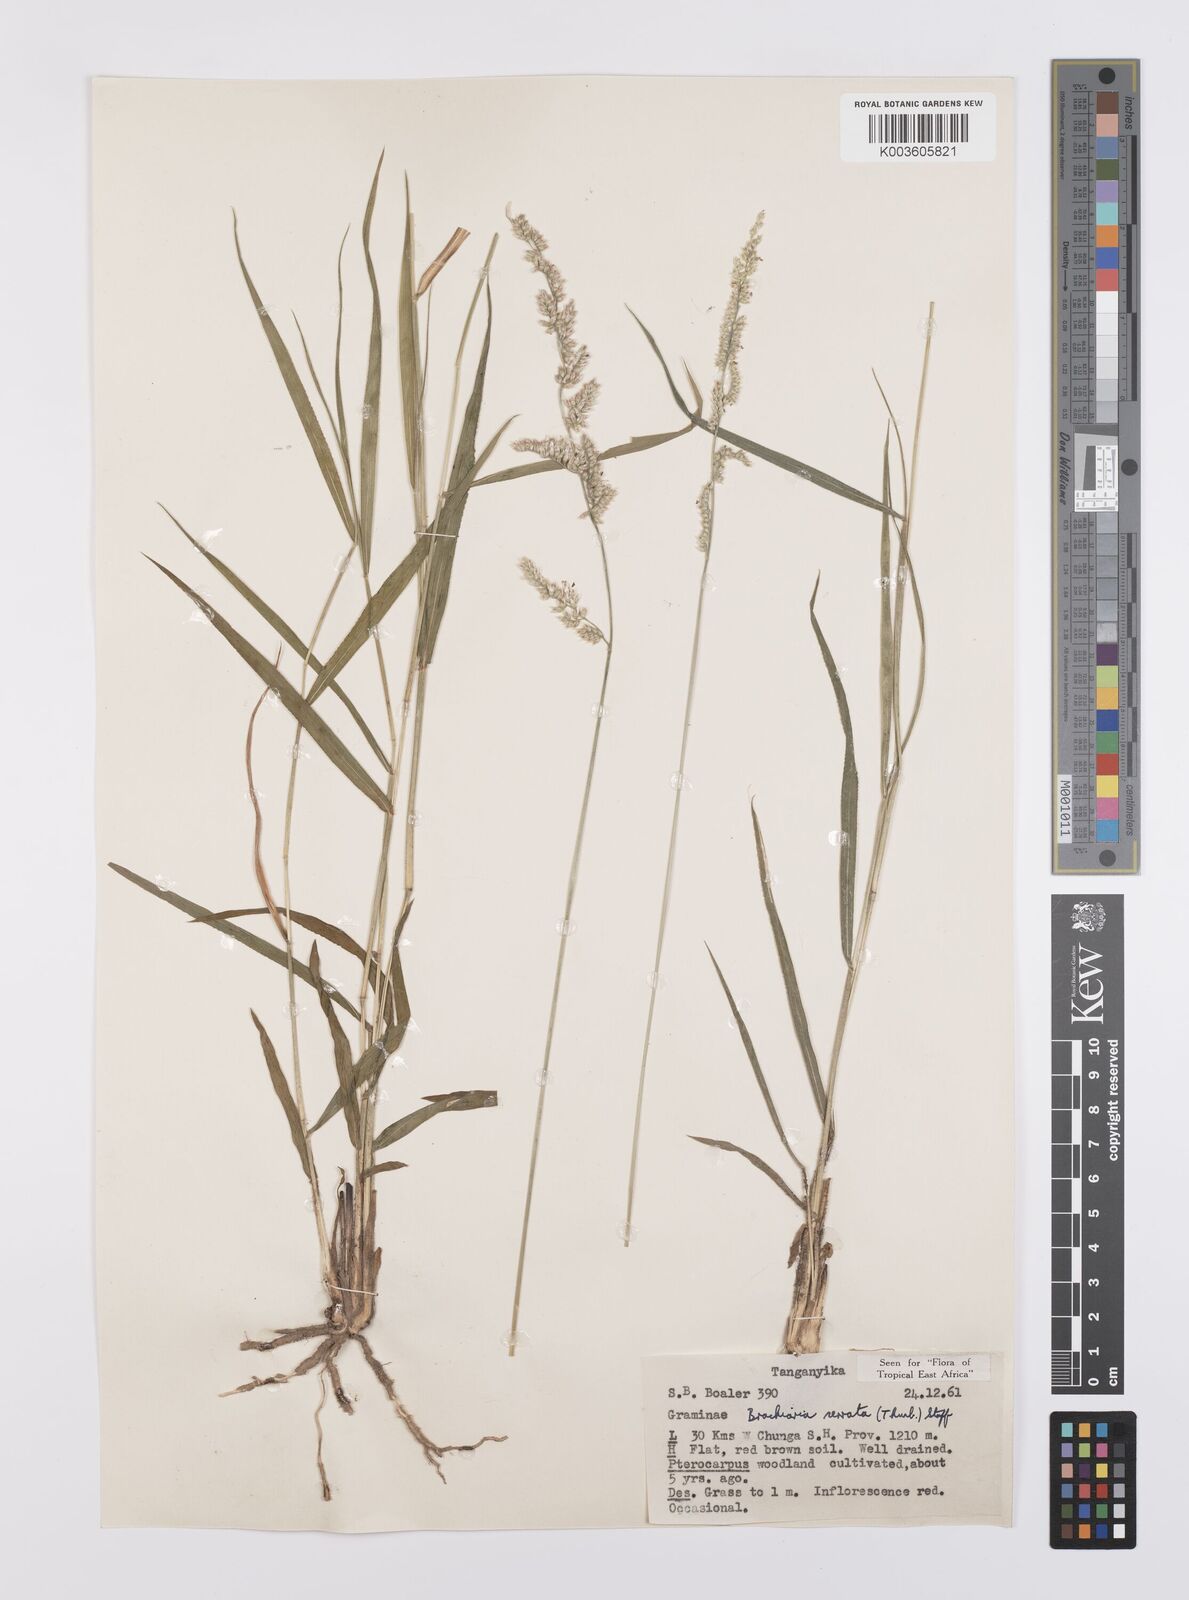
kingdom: Plantae
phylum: Tracheophyta
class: Liliopsida
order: Poales
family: Poaceae
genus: Urochloa
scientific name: Urochloa serrata
